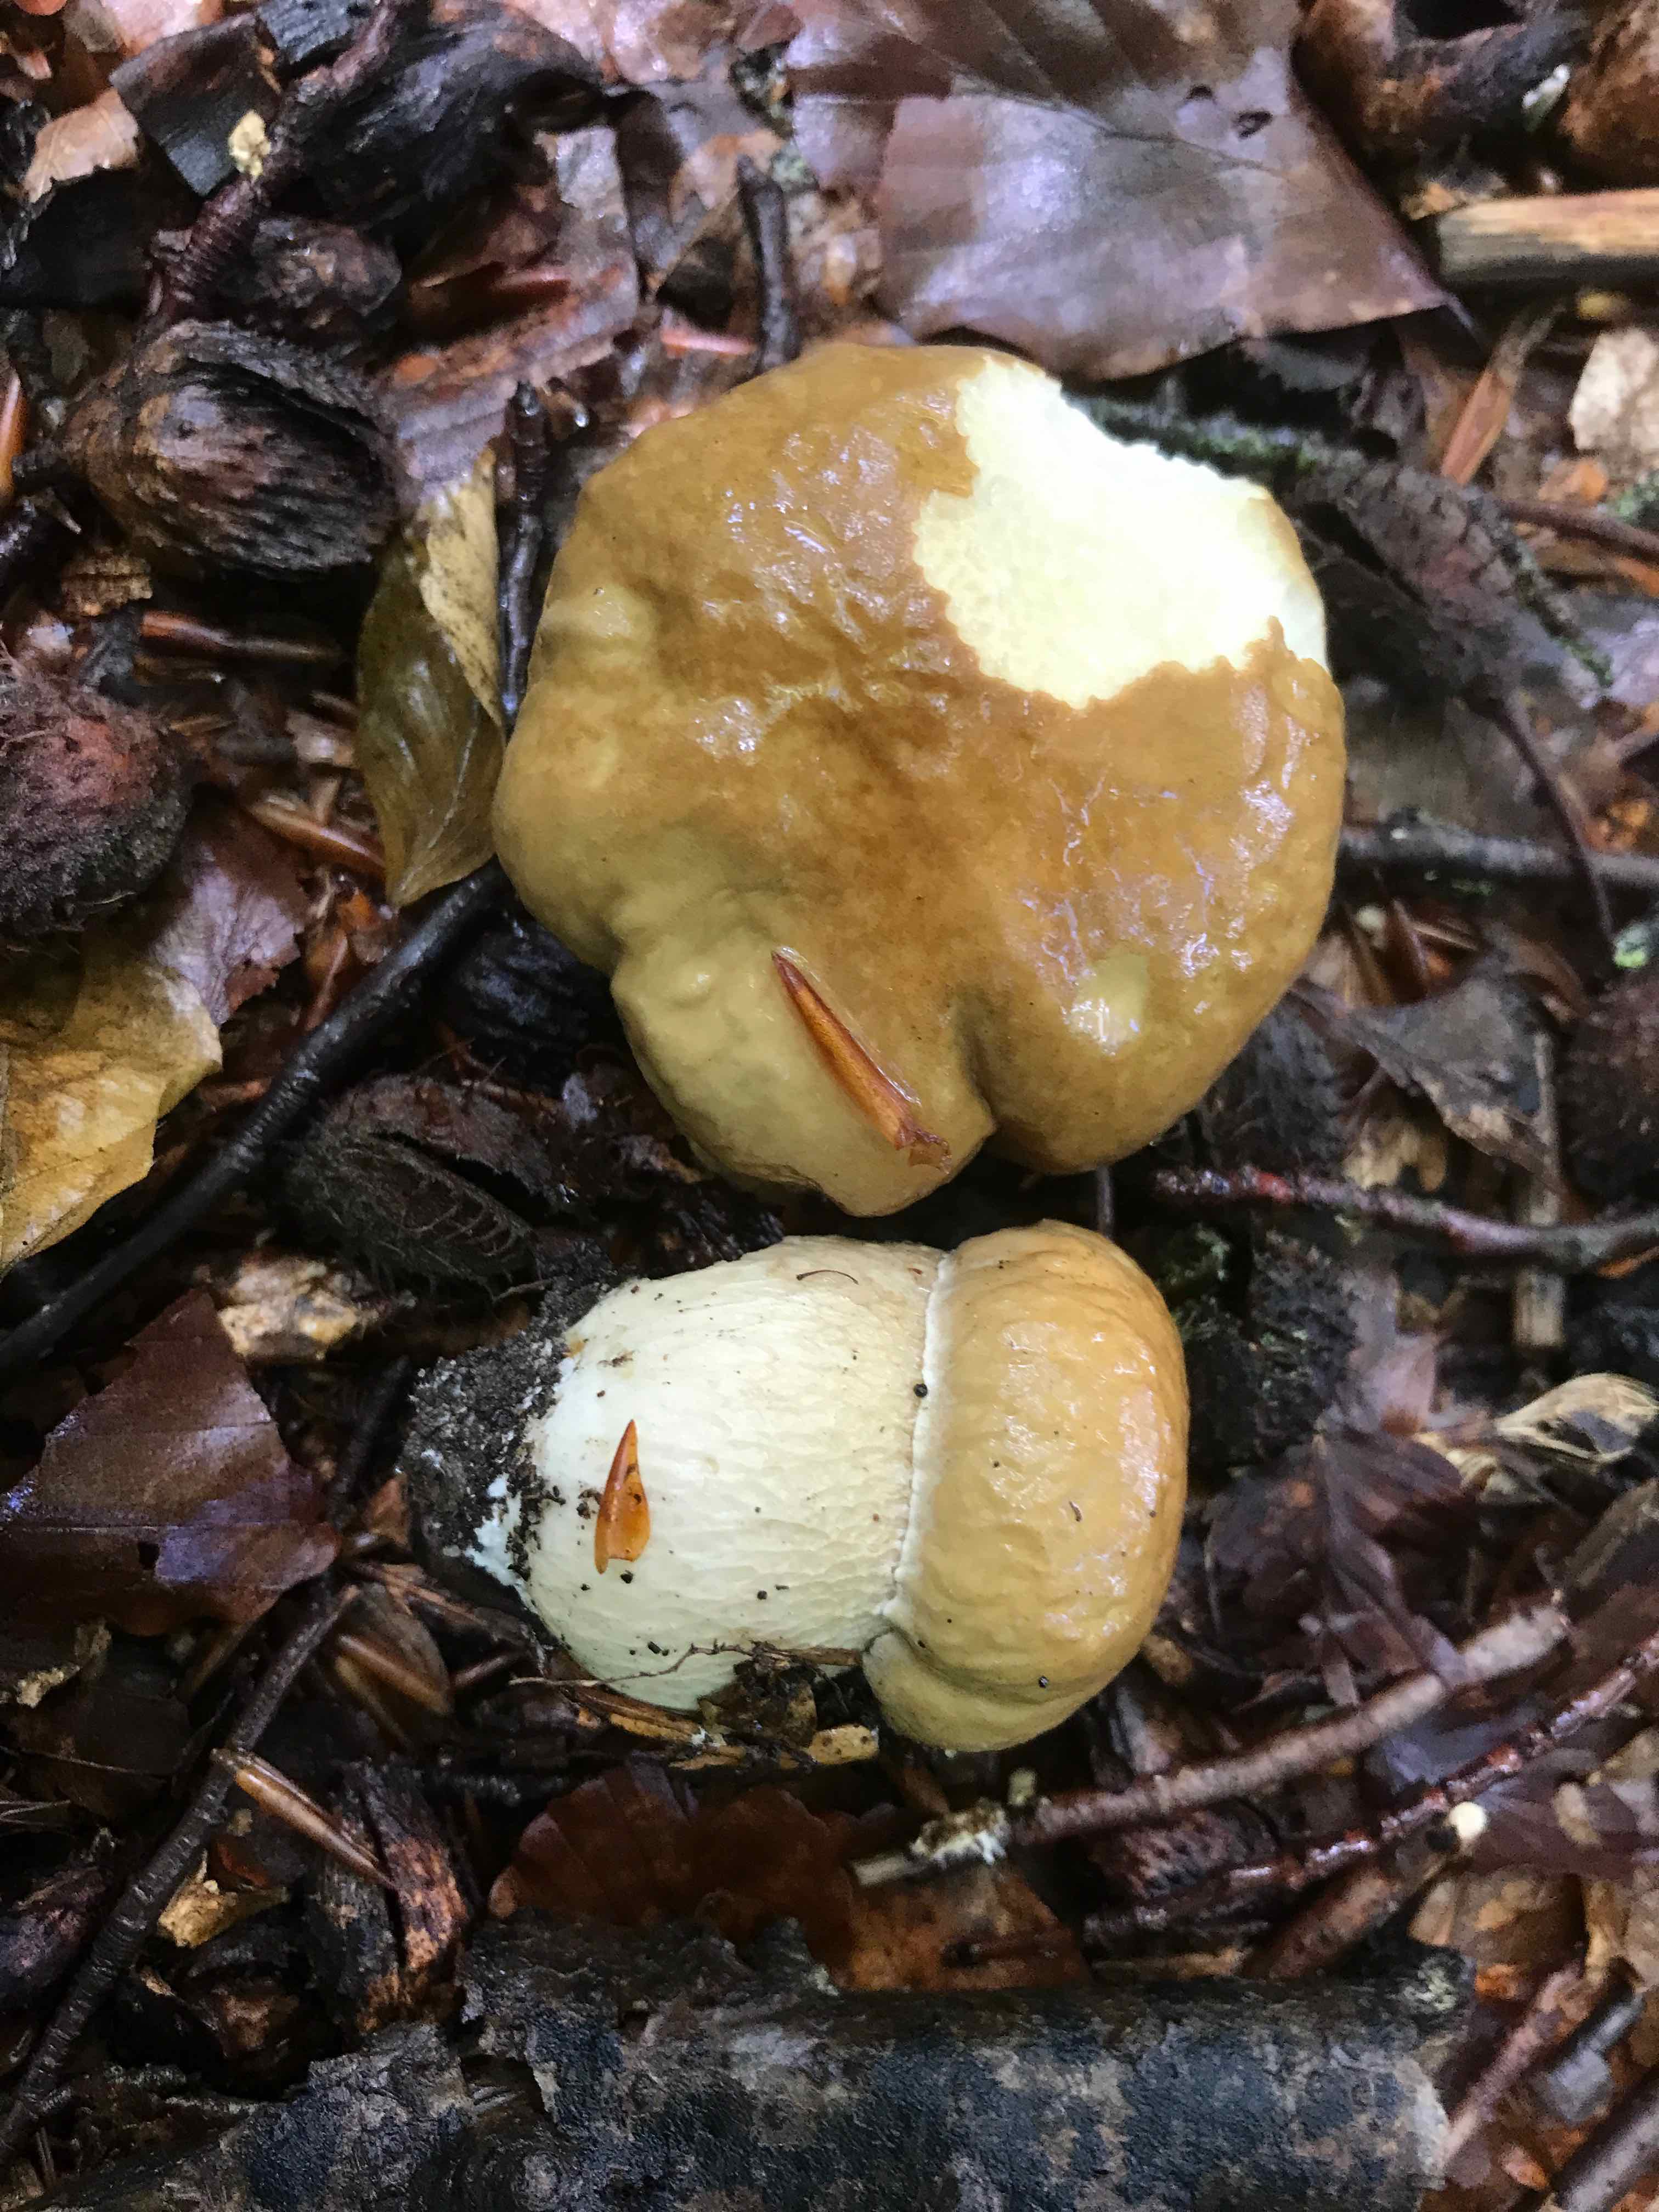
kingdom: Fungi
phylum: Basidiomycota
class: Agaricomycetes
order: Boletales
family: Boletaceae
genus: Boletus
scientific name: Boletus reticulatus
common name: sommer-rørhat
